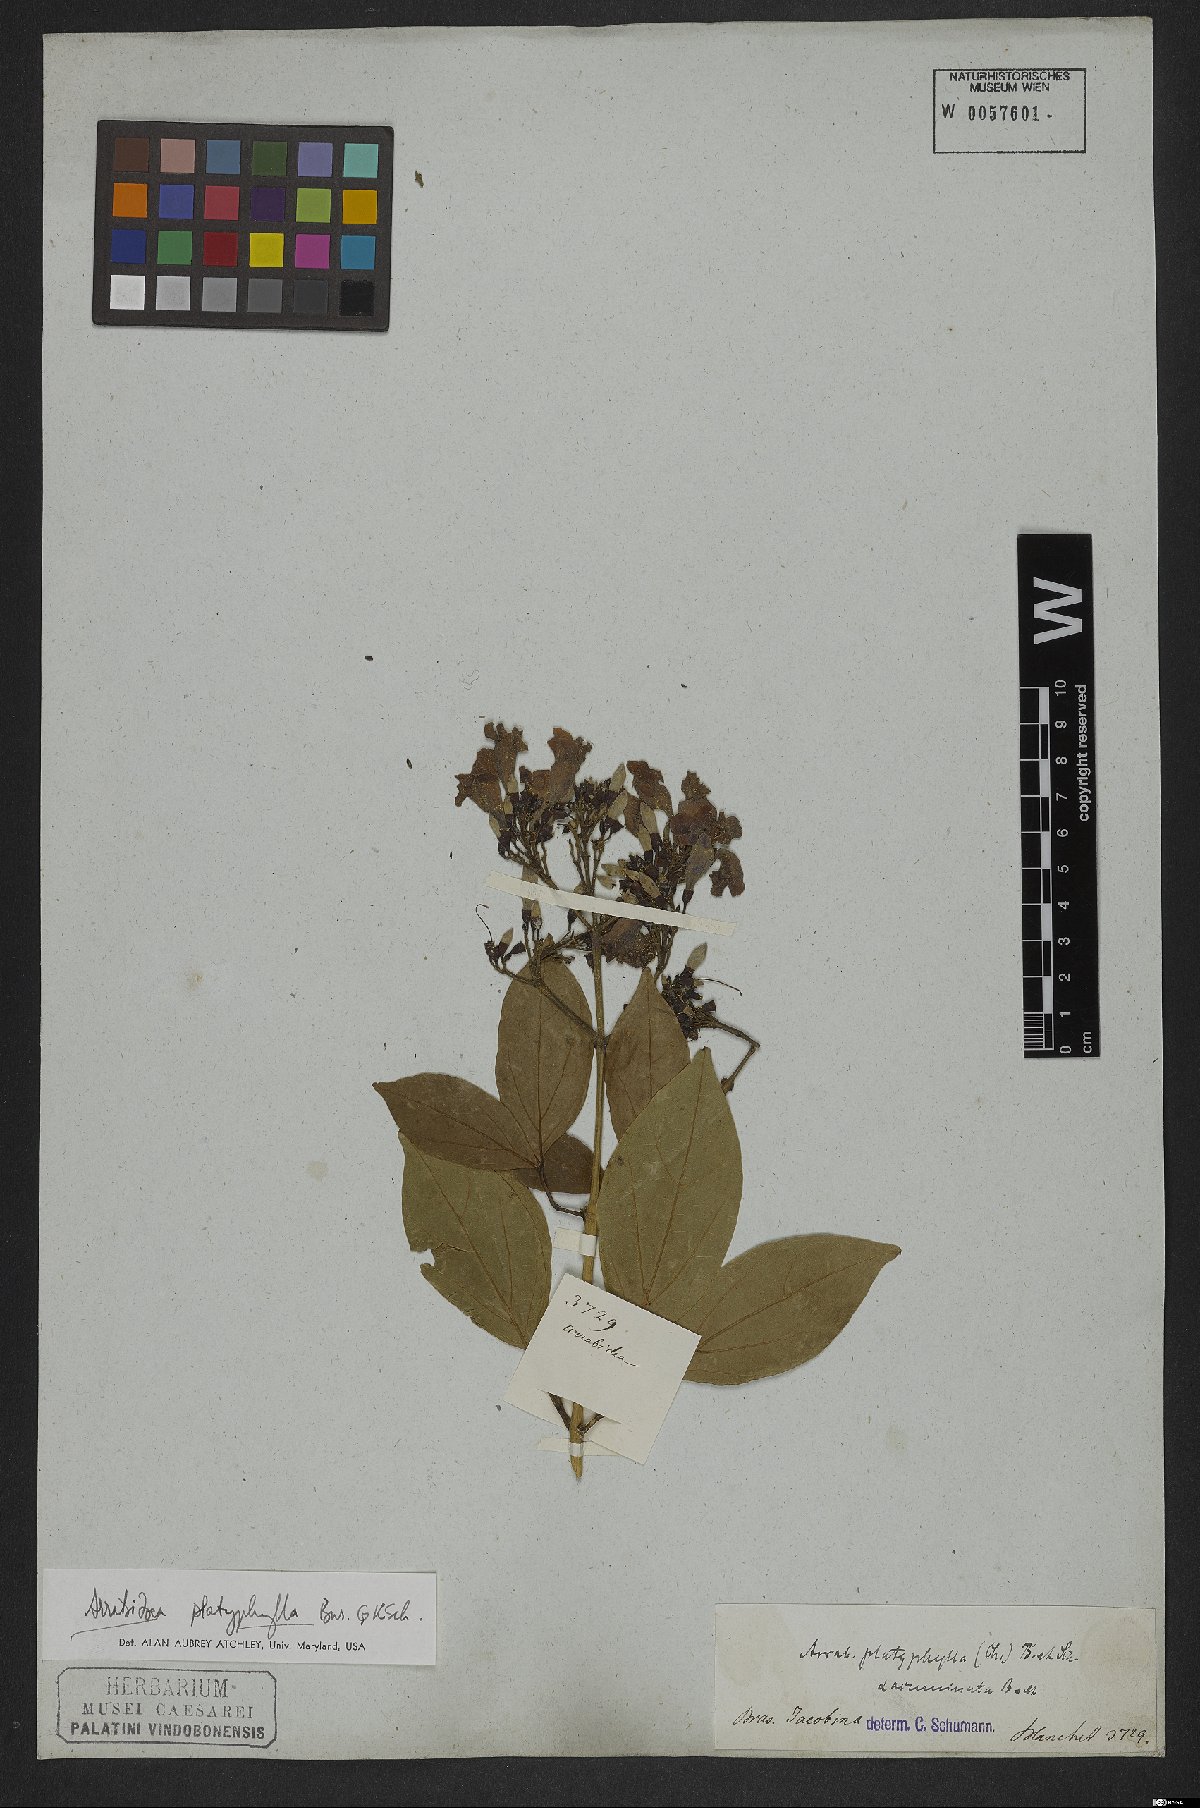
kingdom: Plantae
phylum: Tracheophyta
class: Magnoliopsida
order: Lamiales
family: Bignoniaceae
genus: Xylophragma
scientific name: Xylophragma platyphyllum
